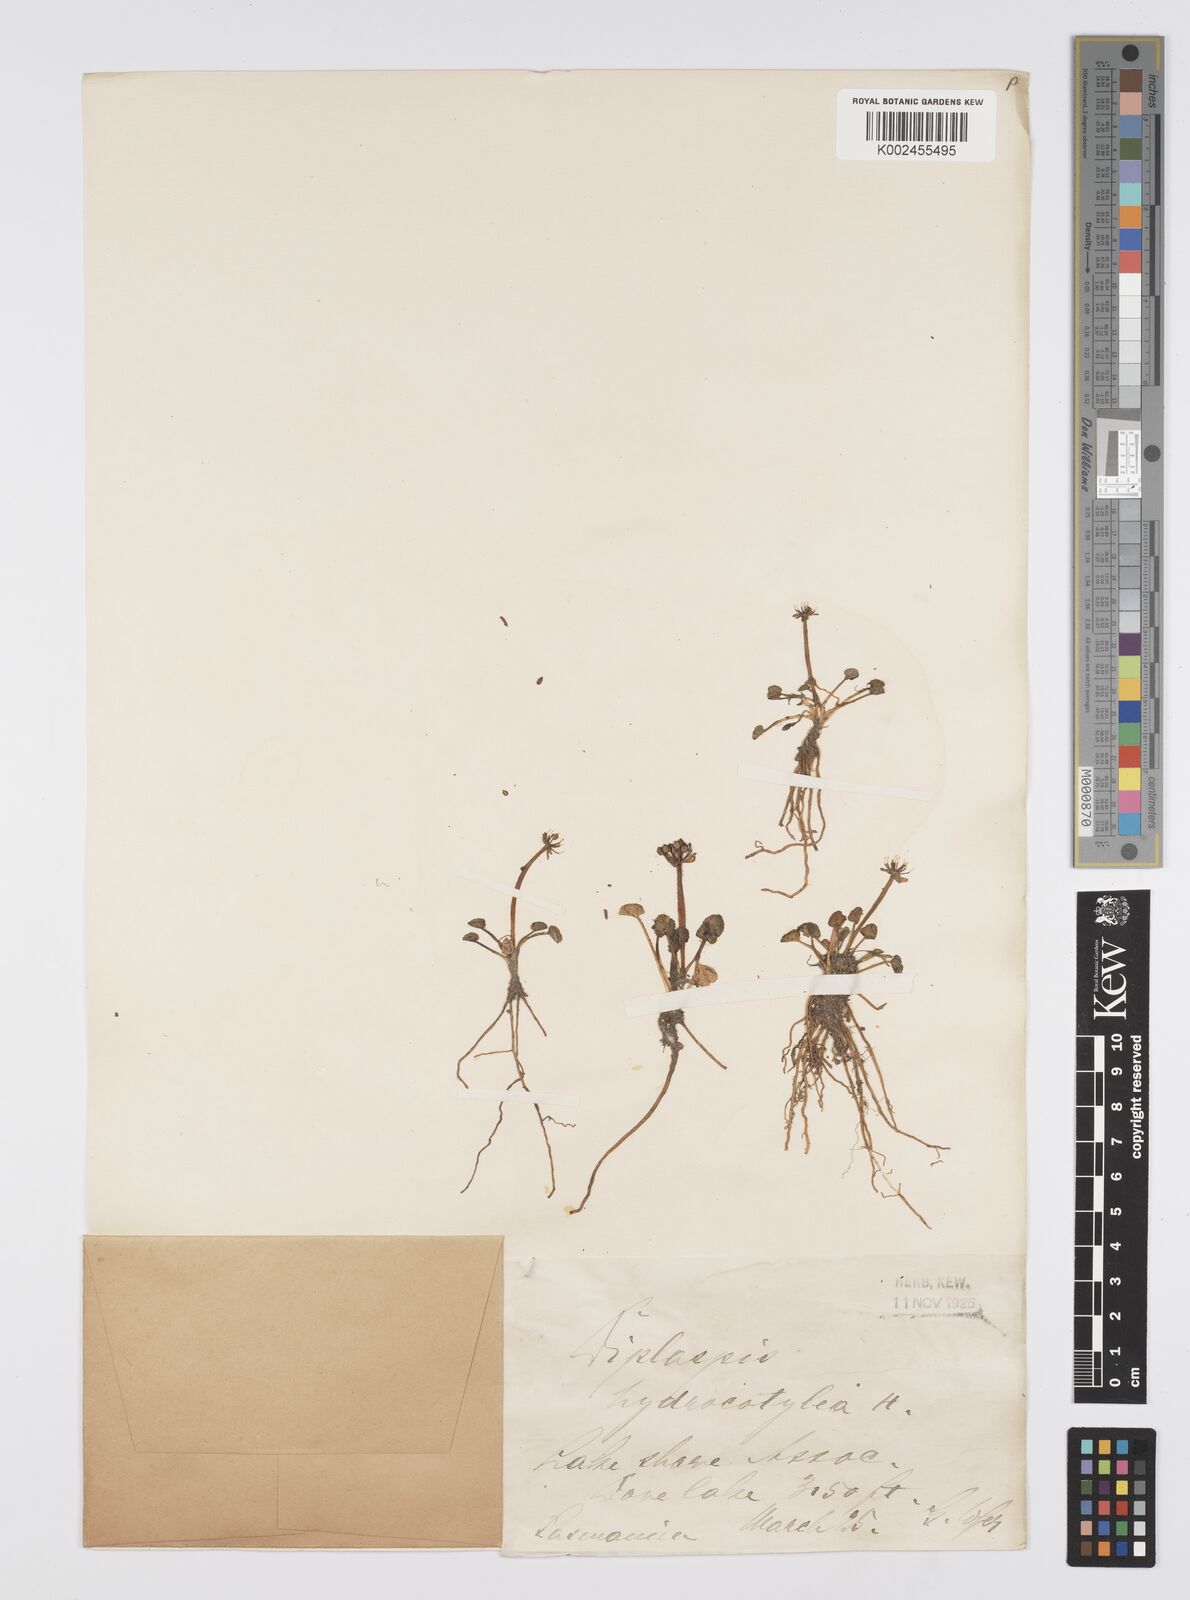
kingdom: Plantae
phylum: Tracheophyta
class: Magnoliopsida
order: Apiales
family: Apiaceae
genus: Diplaspis
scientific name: Diplaspis hydrocotylea
